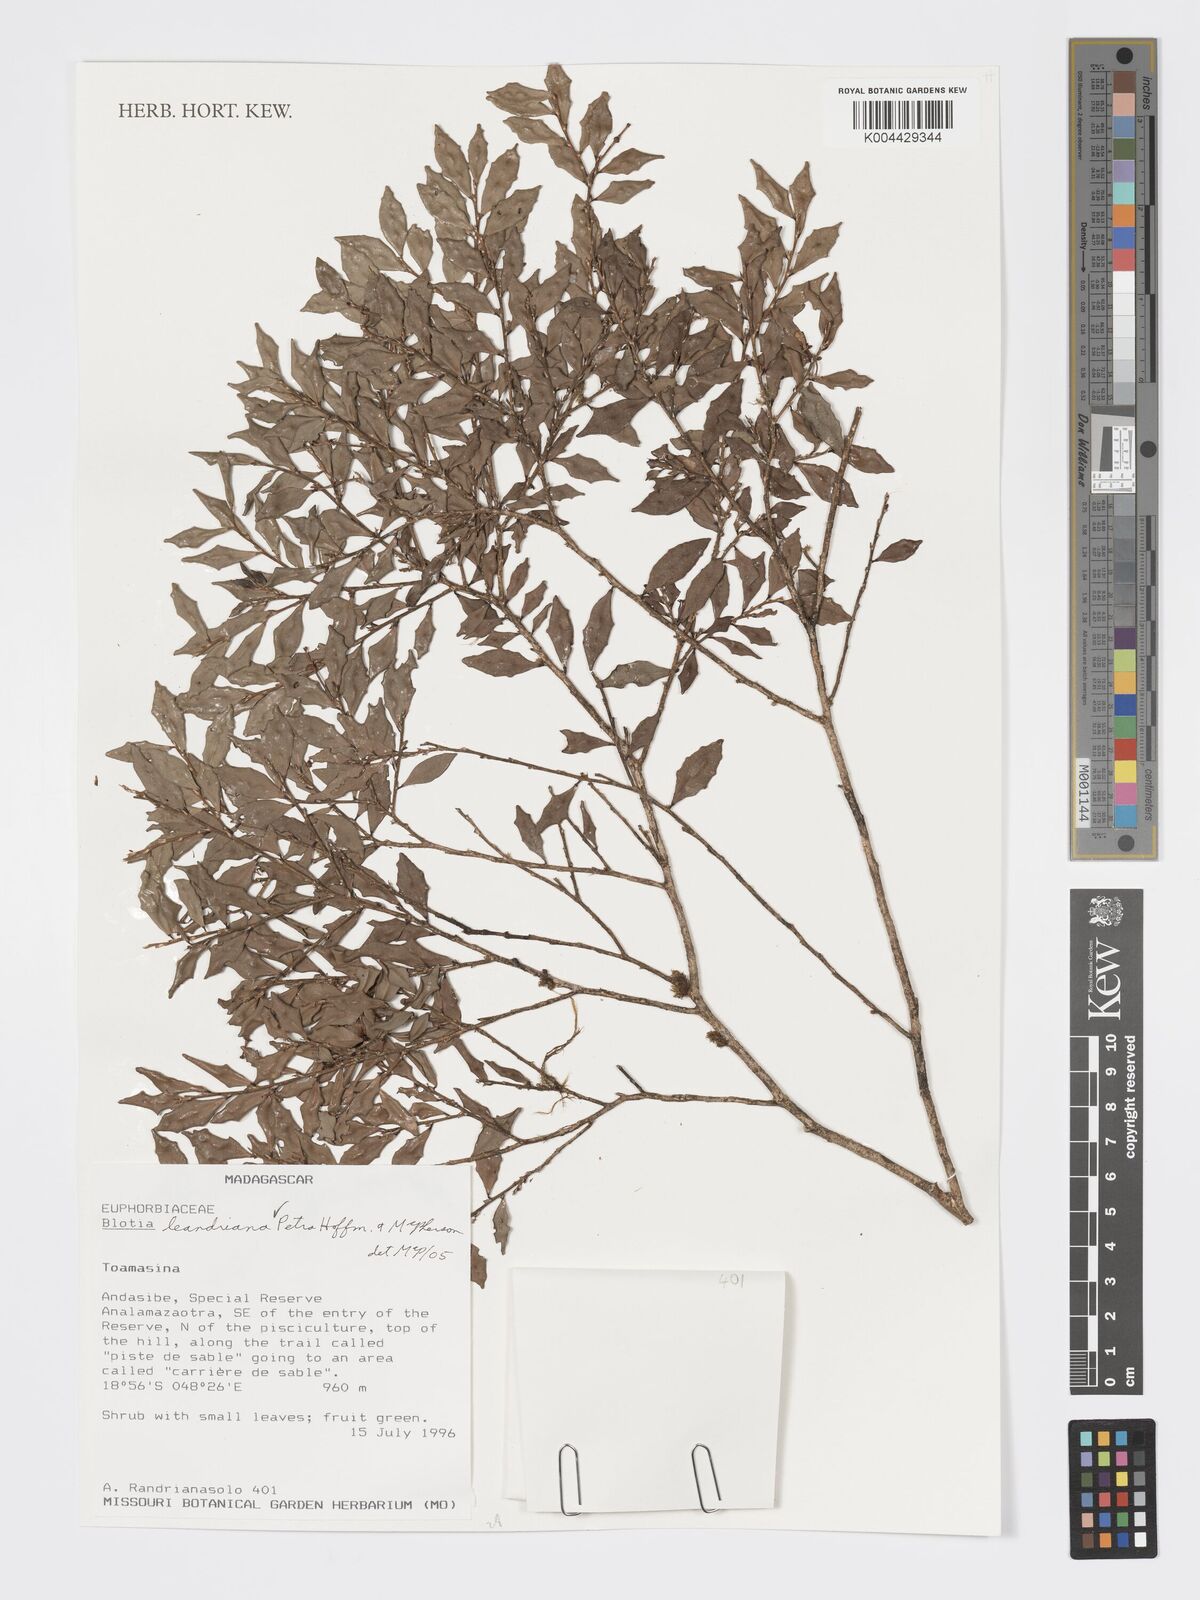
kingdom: Plantae
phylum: Tracheophyta
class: Magnoliopsida
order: Malpighiales
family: Phyllanthaceae
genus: Wielandia
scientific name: Wielandia leandriana
